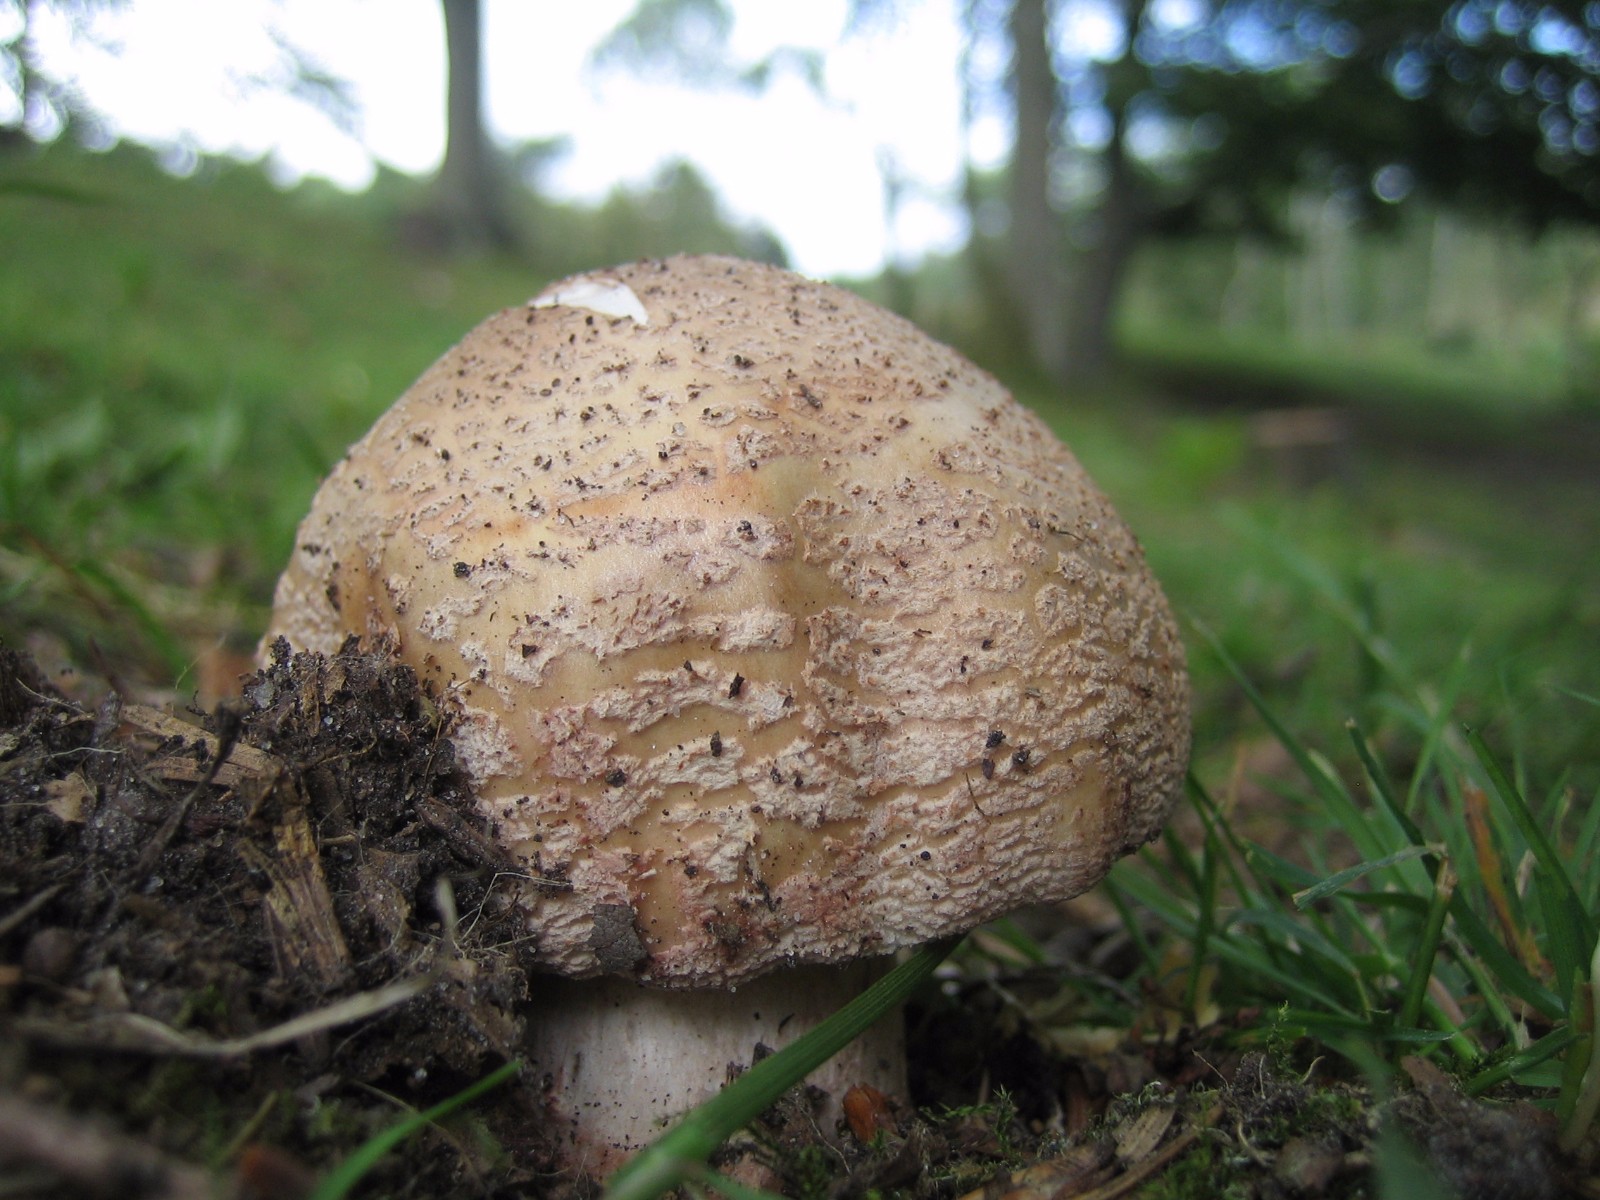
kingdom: Fungi
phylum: Basidiomycota
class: Agaricomycetes
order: Agaricales
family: Amanitaceae
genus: Amanita
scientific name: Amanita rubescens
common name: rødmende fluesvamp
